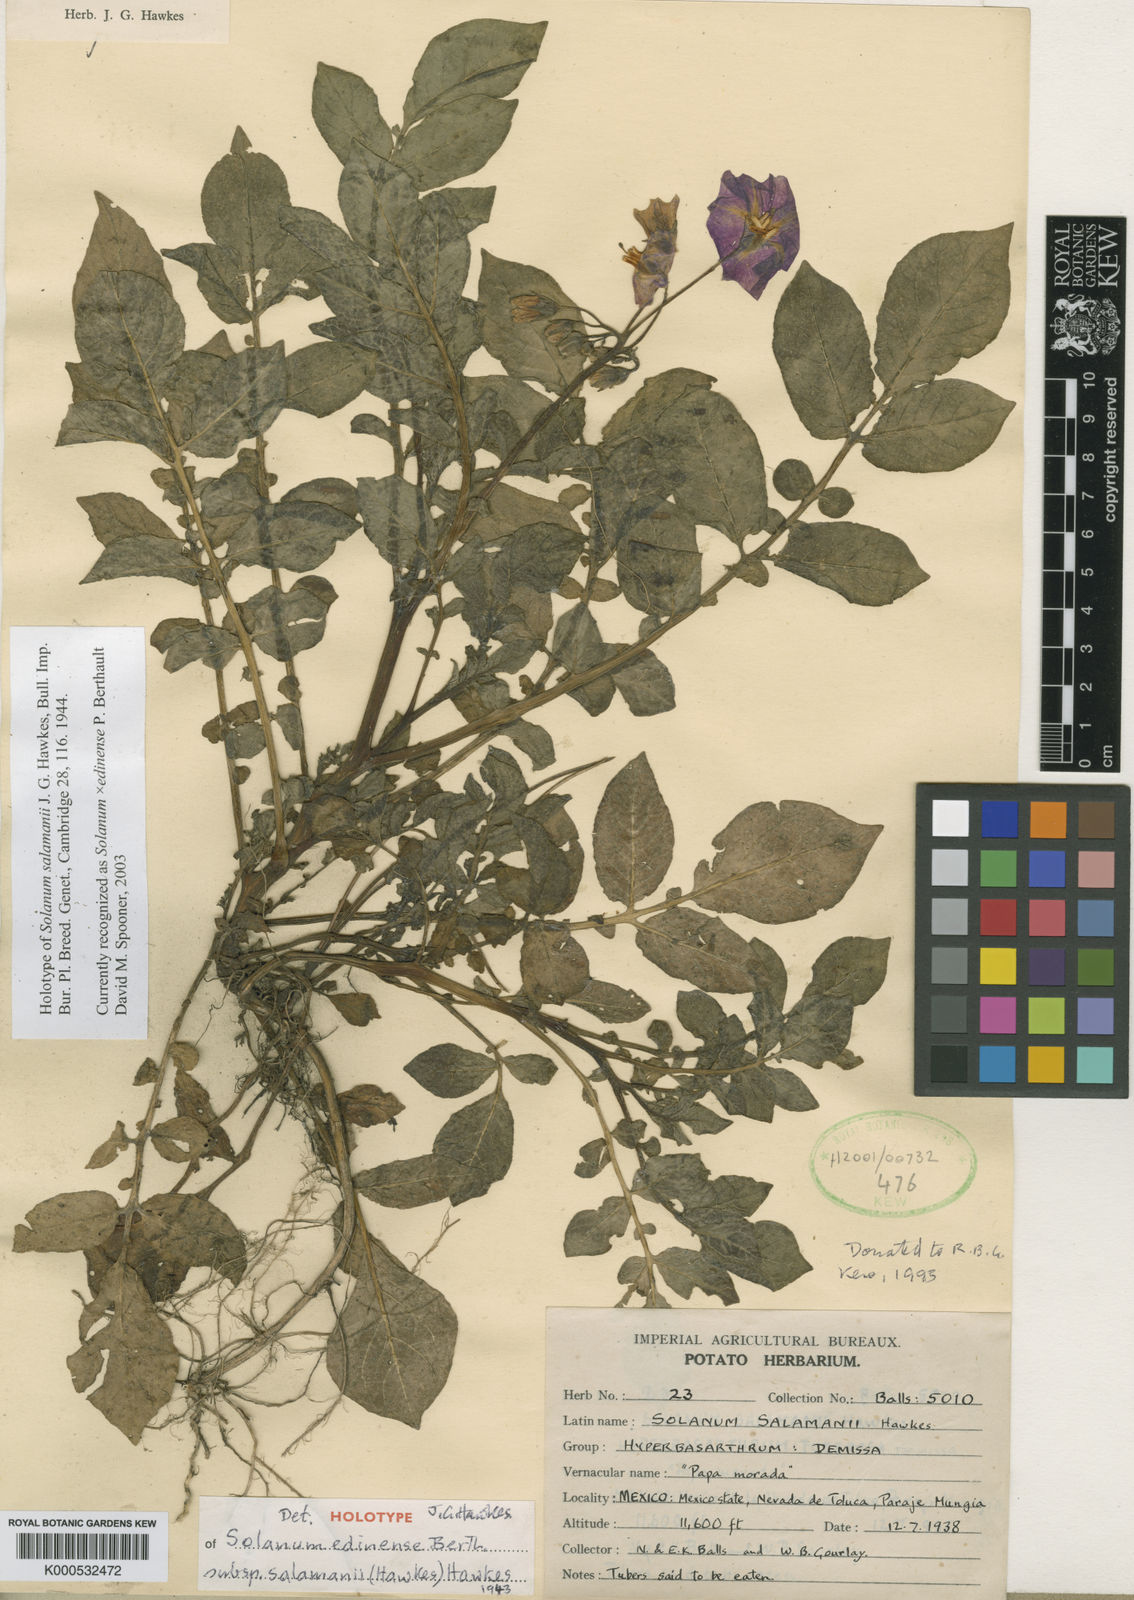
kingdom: Plantae
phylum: Tracheophyta
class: Magnoliopsida
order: Solanales
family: Solanaceae
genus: Solanum
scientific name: Solanum
